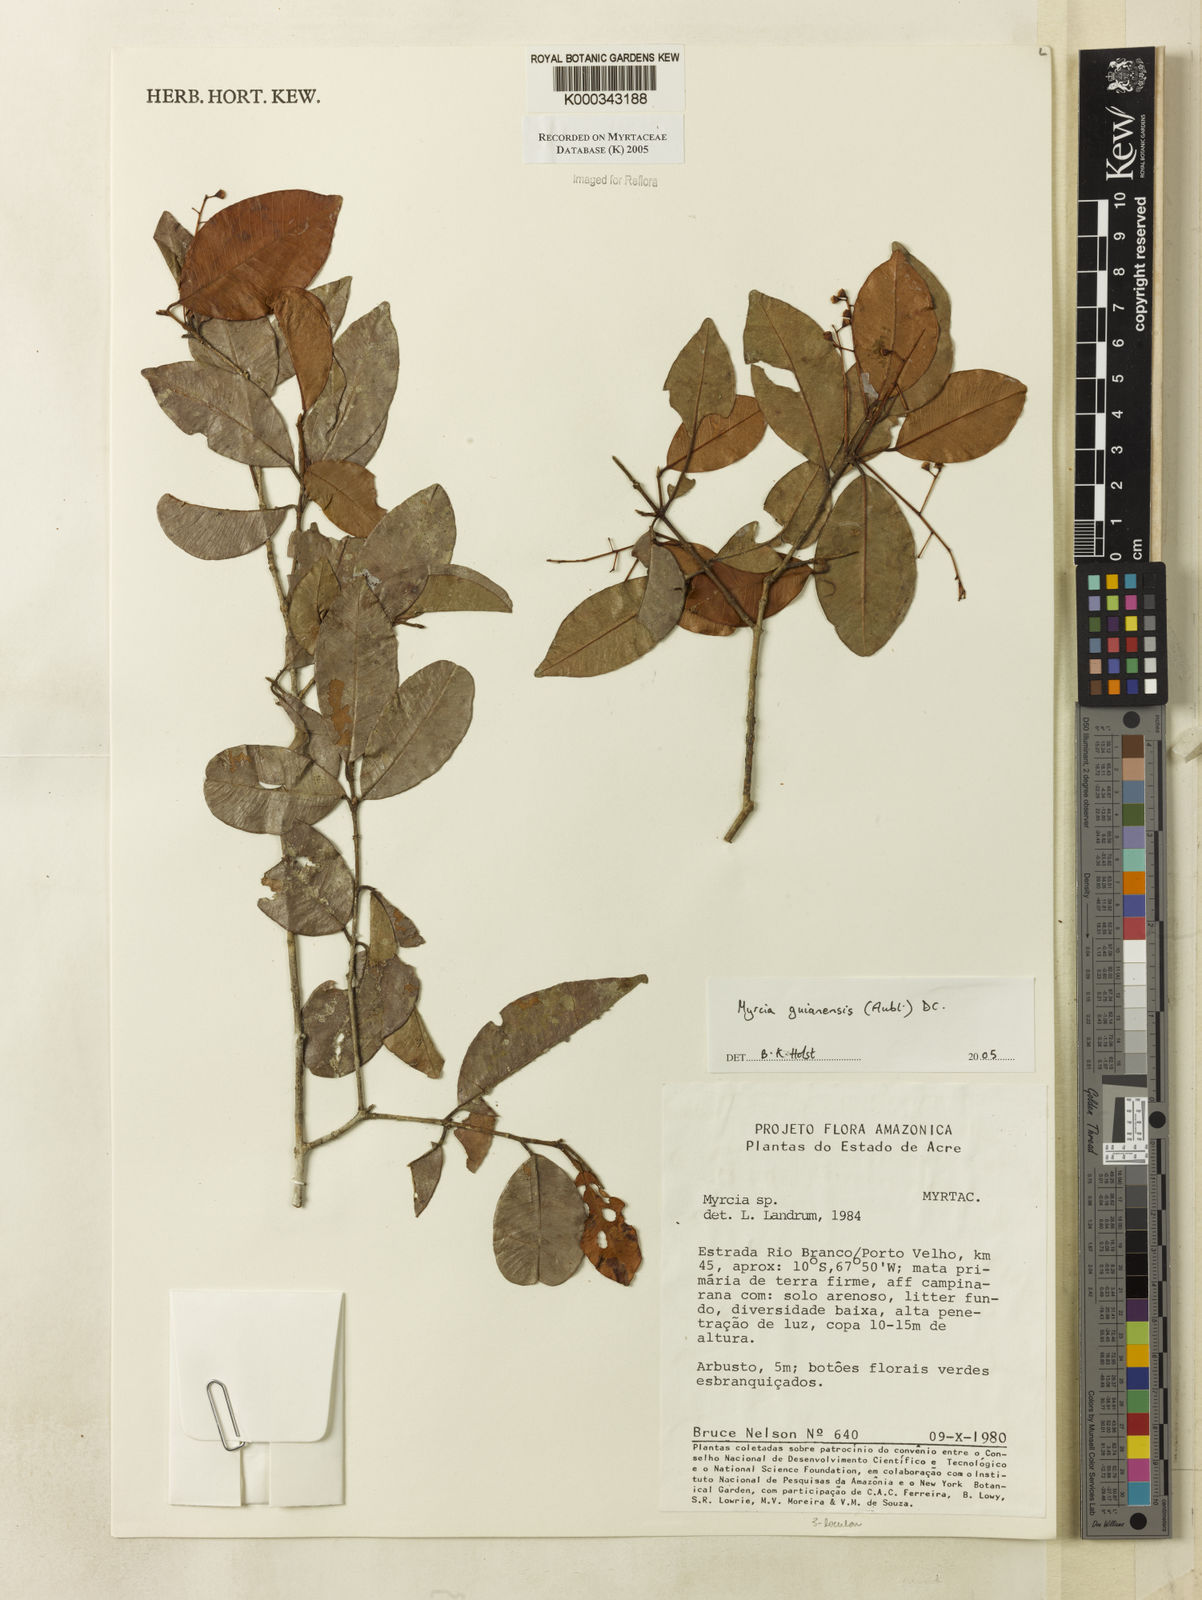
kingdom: Plantae
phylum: Tracheophyta
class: Magnoliopsida
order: Myrtales
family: Myrtaceae
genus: Myrcia
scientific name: Myrcia guianensis
